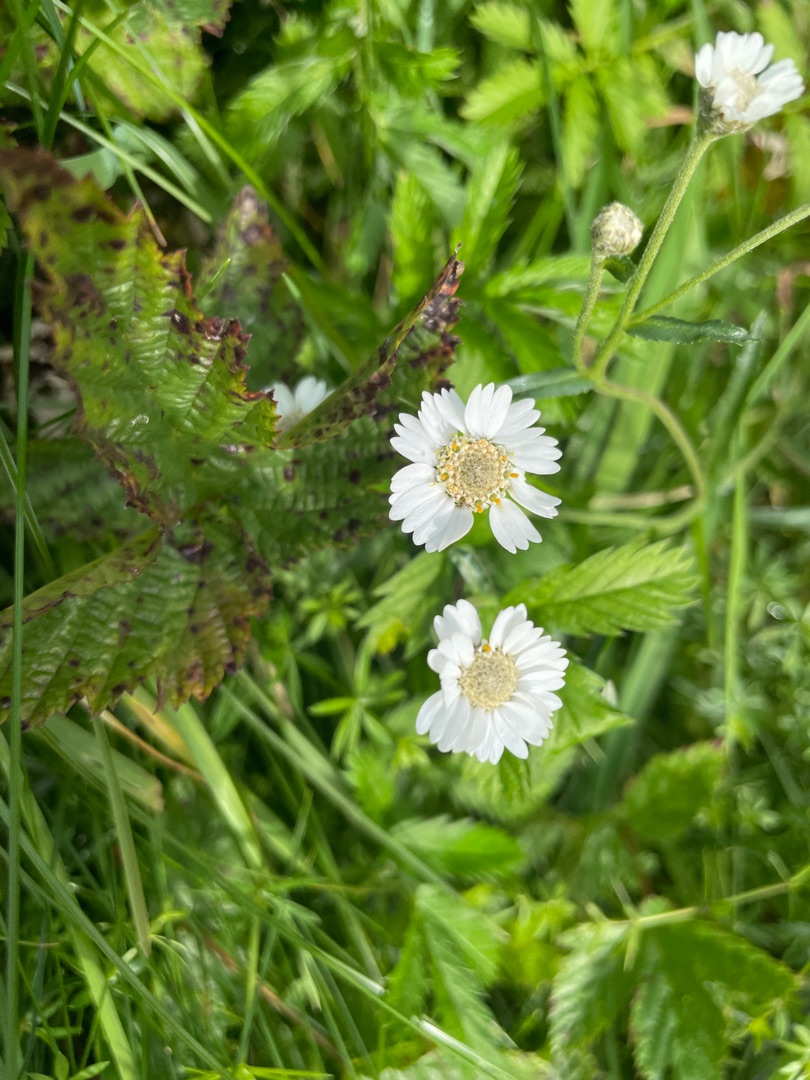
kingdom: Plantae
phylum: Tracheophyta
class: Magnoliopsida
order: Asterales
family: Asteraceae
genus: Achillea
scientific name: Achillea ptarmica
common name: Nyse-røllike
